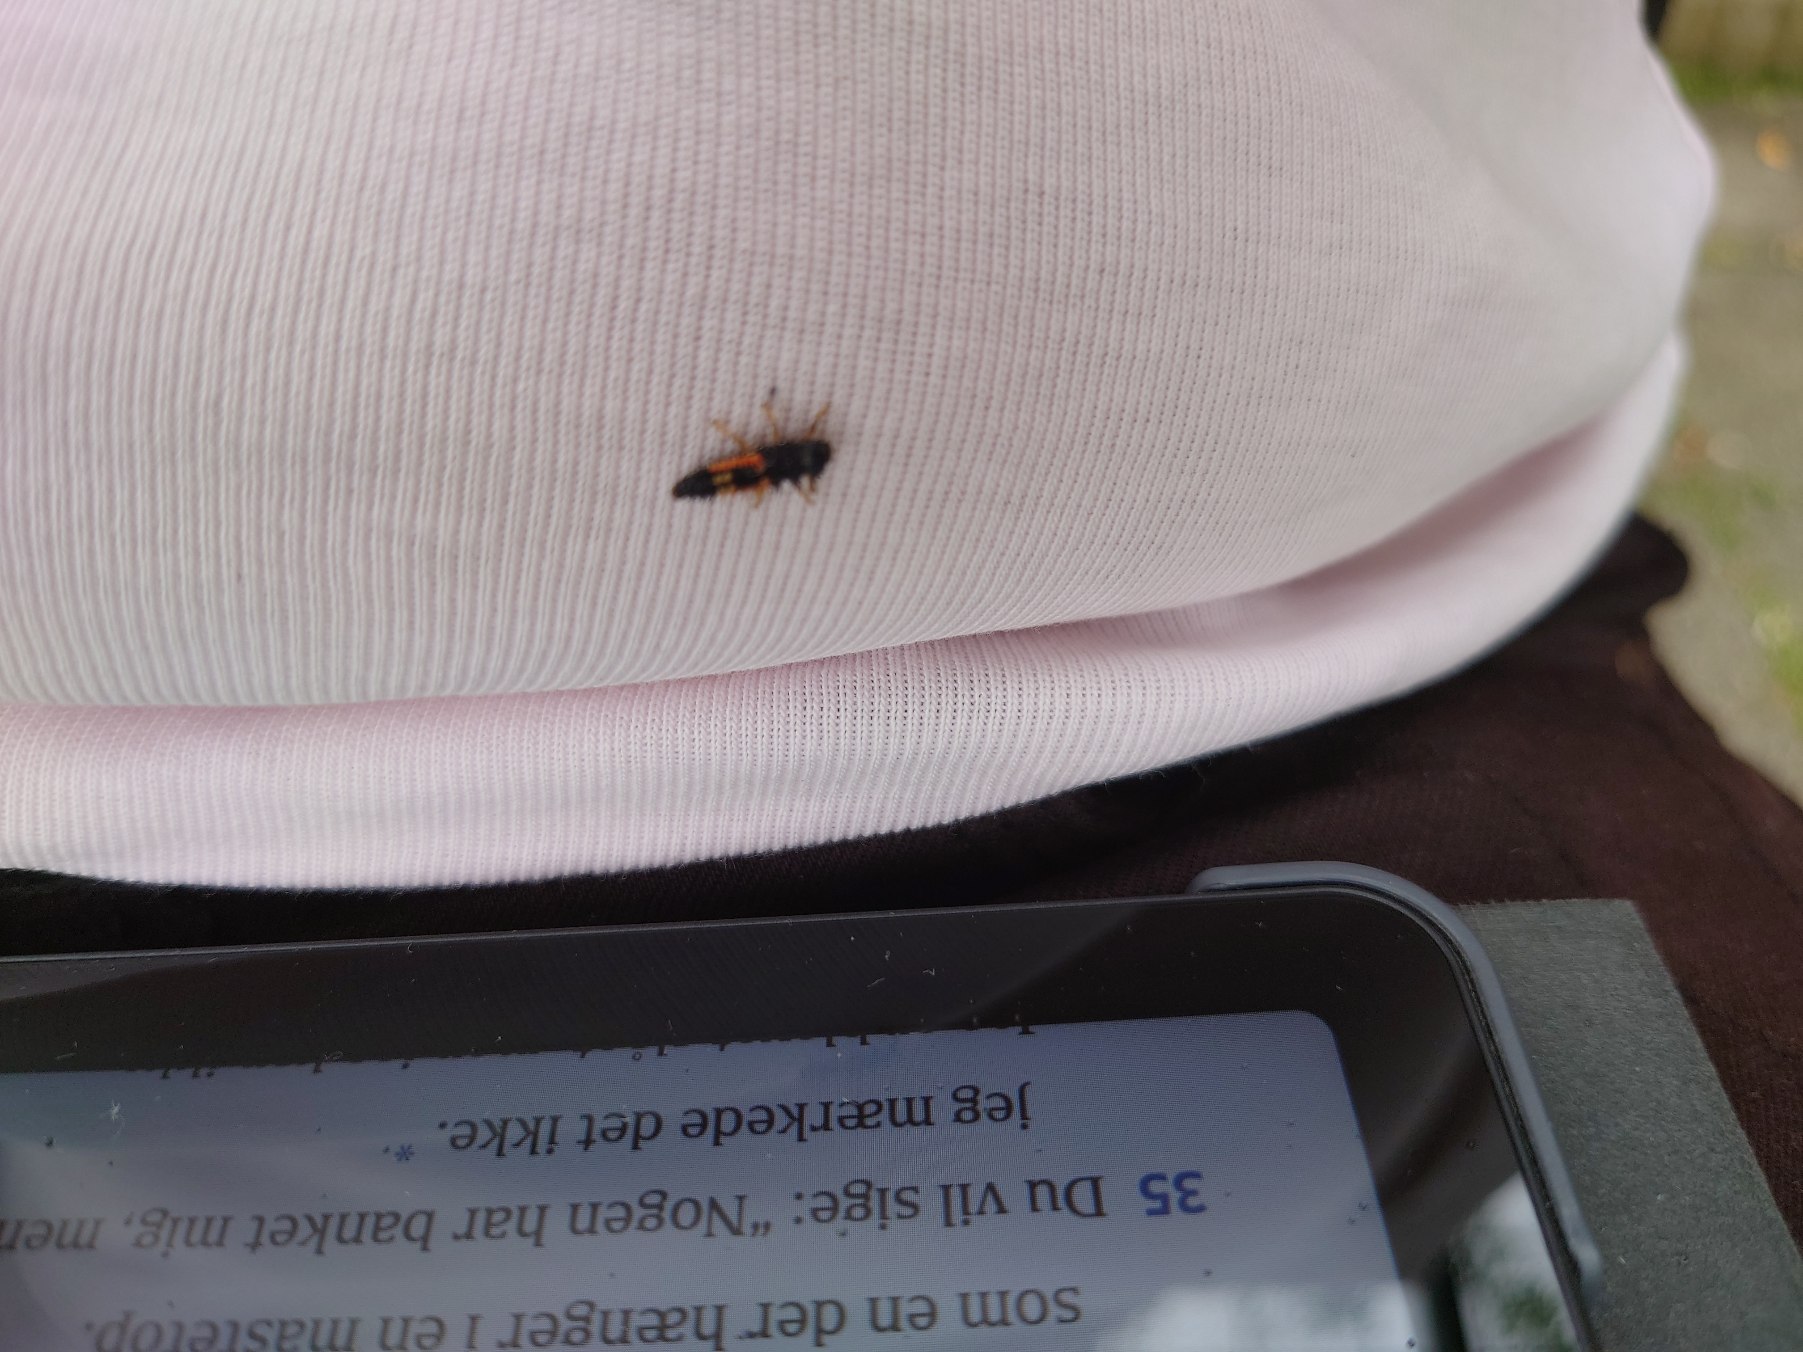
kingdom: Animalia
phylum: Arthropoda
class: Insecta
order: Coleoptera
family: Coccinellidae
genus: Harmonia
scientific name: Harmonia axyridis
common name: Harlekinmariehøne
